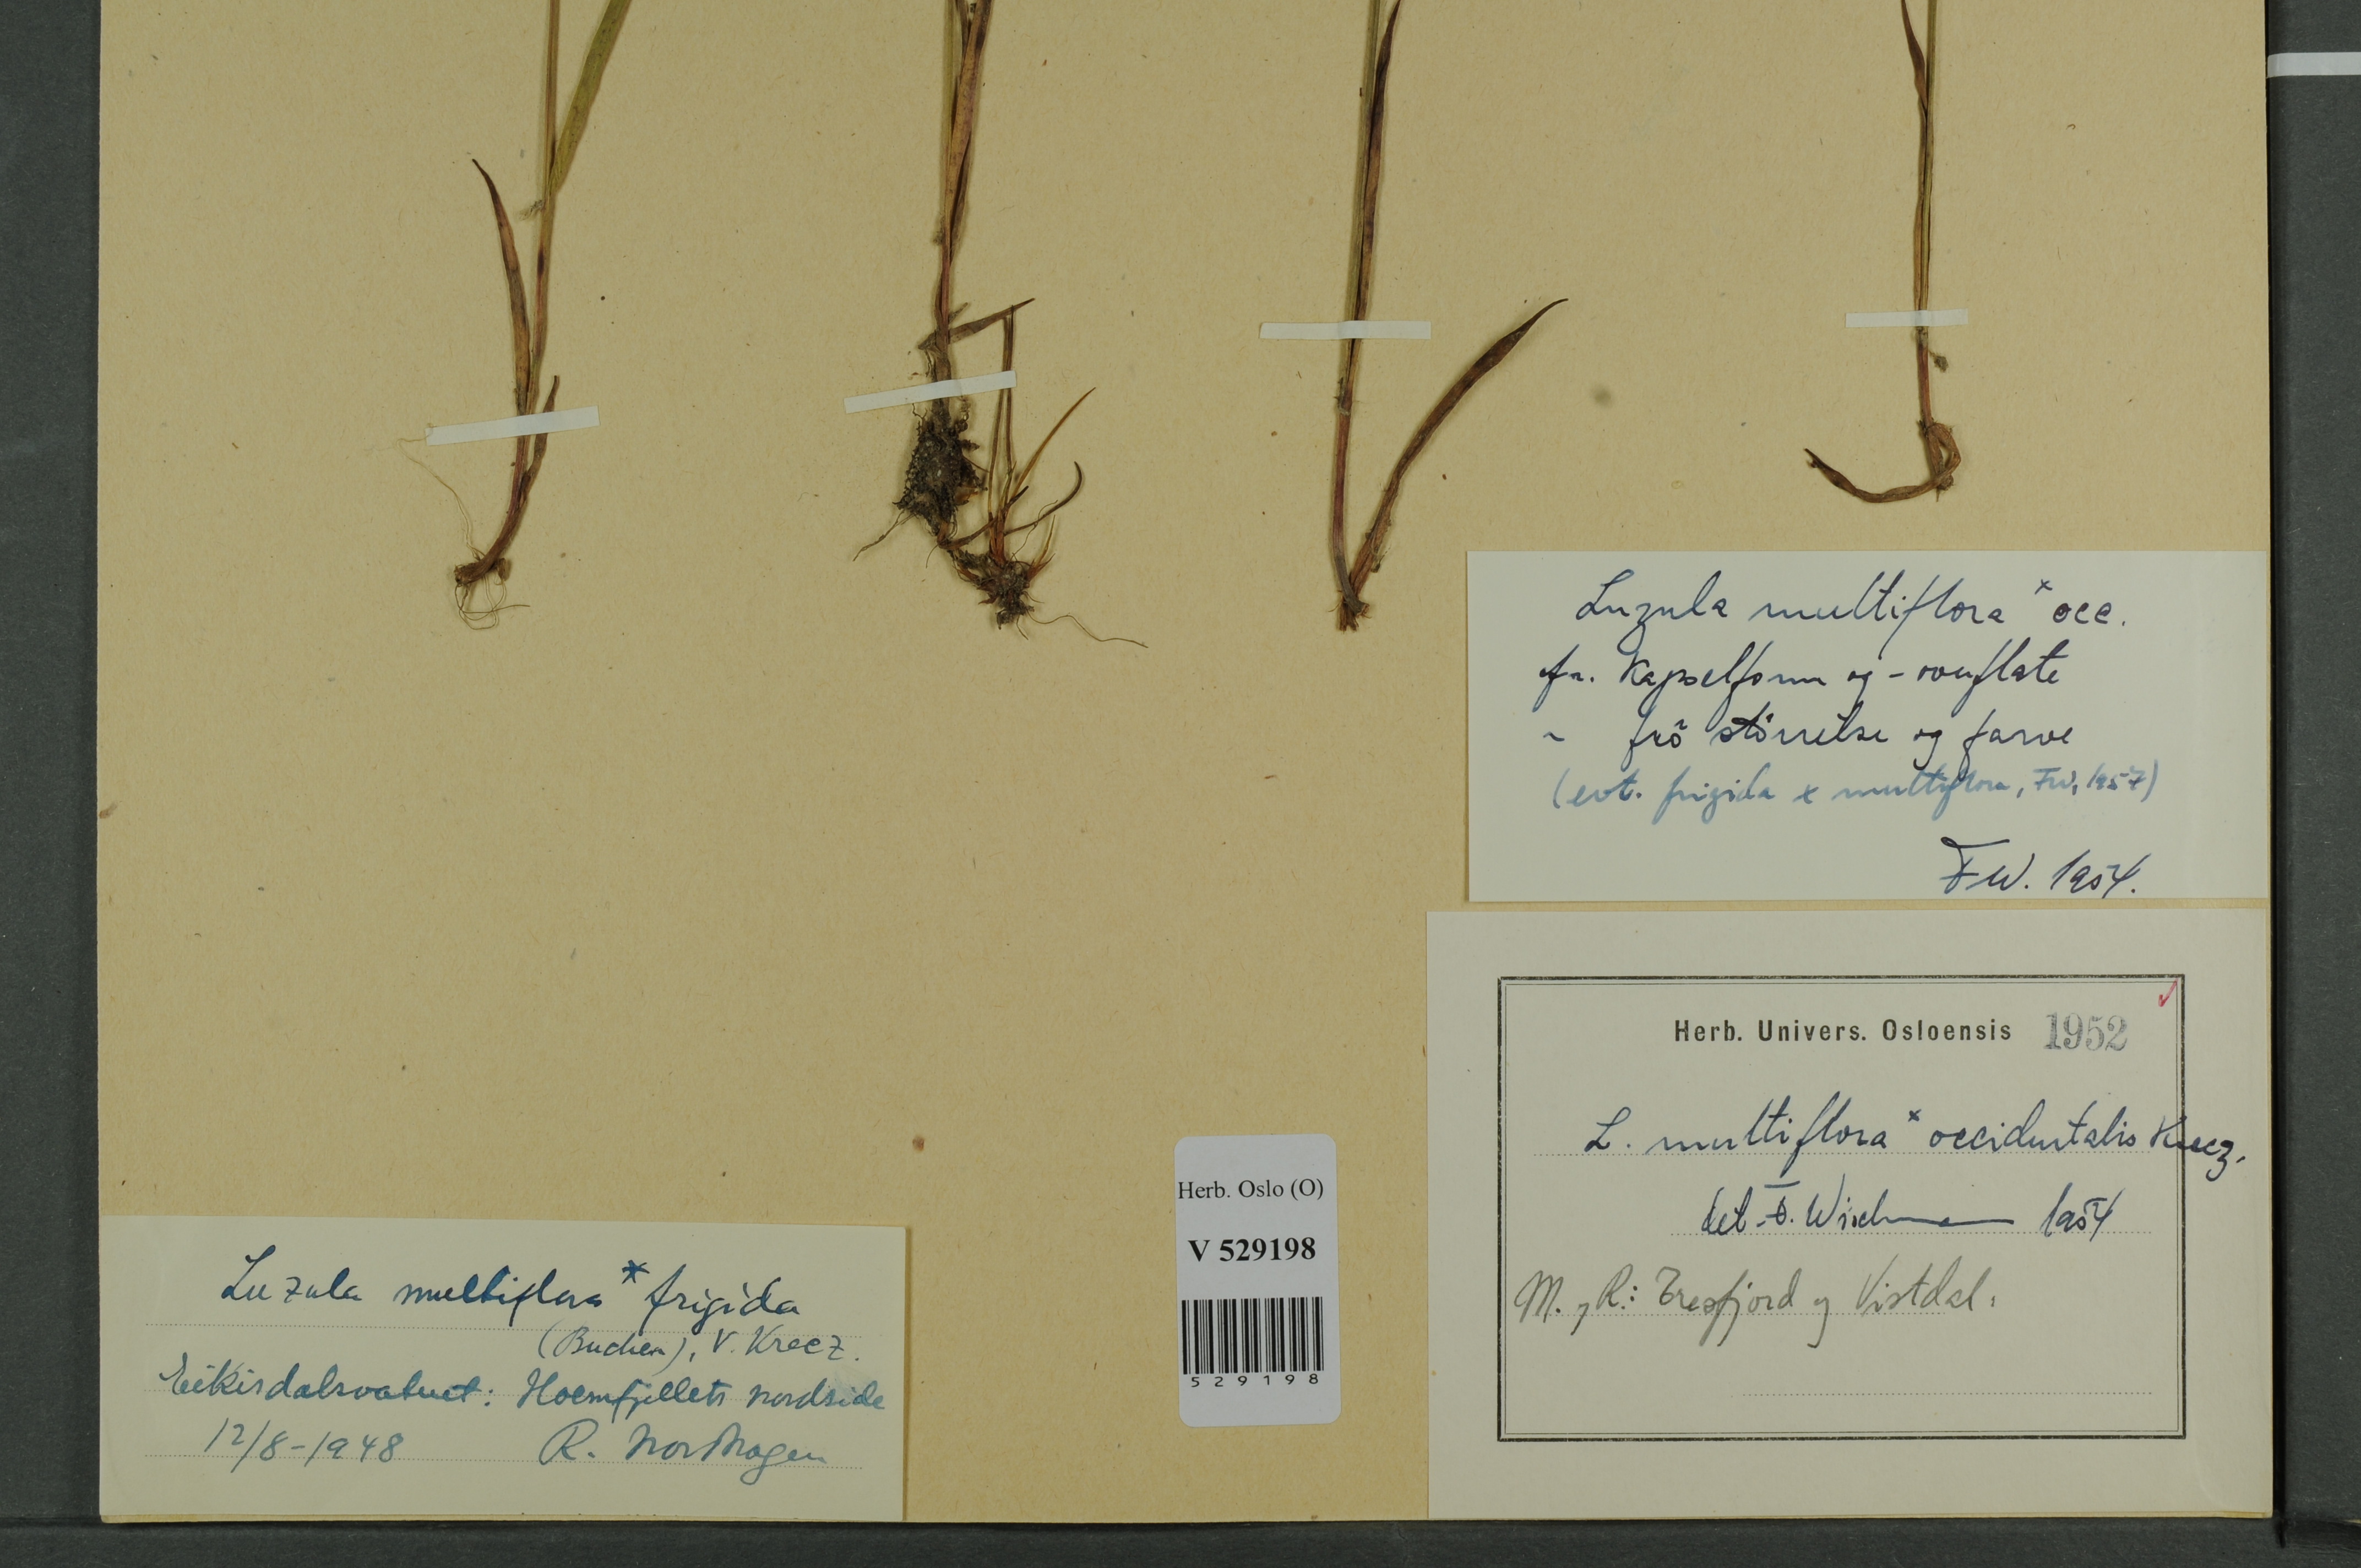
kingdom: Plantae
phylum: Tracheophyta
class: Liliopsida
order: Poales
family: Juncaceae
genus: Luzula
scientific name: Luzula multiflora
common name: Heath wood-rush
